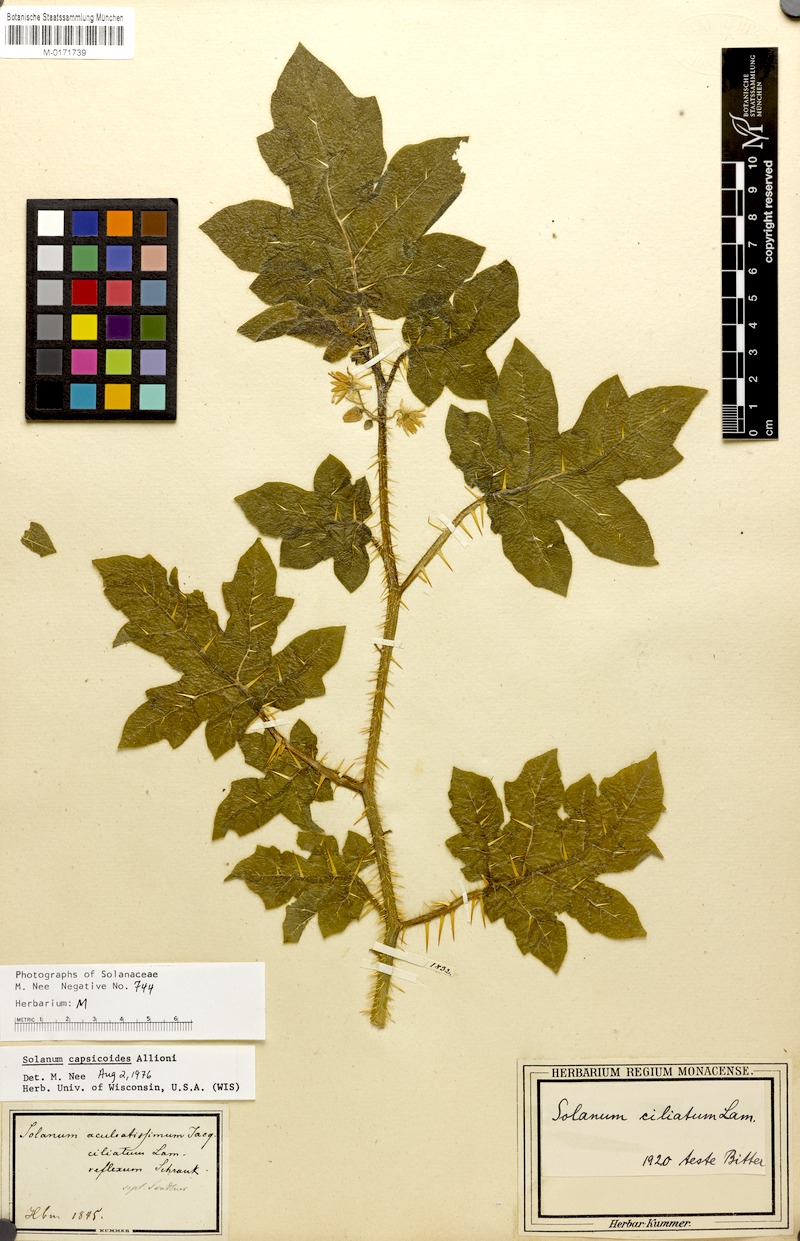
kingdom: Plantae
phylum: Tracheophyta
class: Magnoliopsida
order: Solanales
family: Solanaceae
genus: Solanum
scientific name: Solanum capsicoides
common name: Cockroach berry
